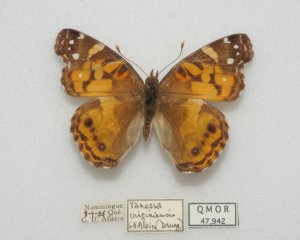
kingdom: Animalia
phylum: Arthropoda
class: Insecta
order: Lepidoptera
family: Nymphalidae
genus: Vanessa
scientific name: Vanessa virginiensis
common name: American Lady
